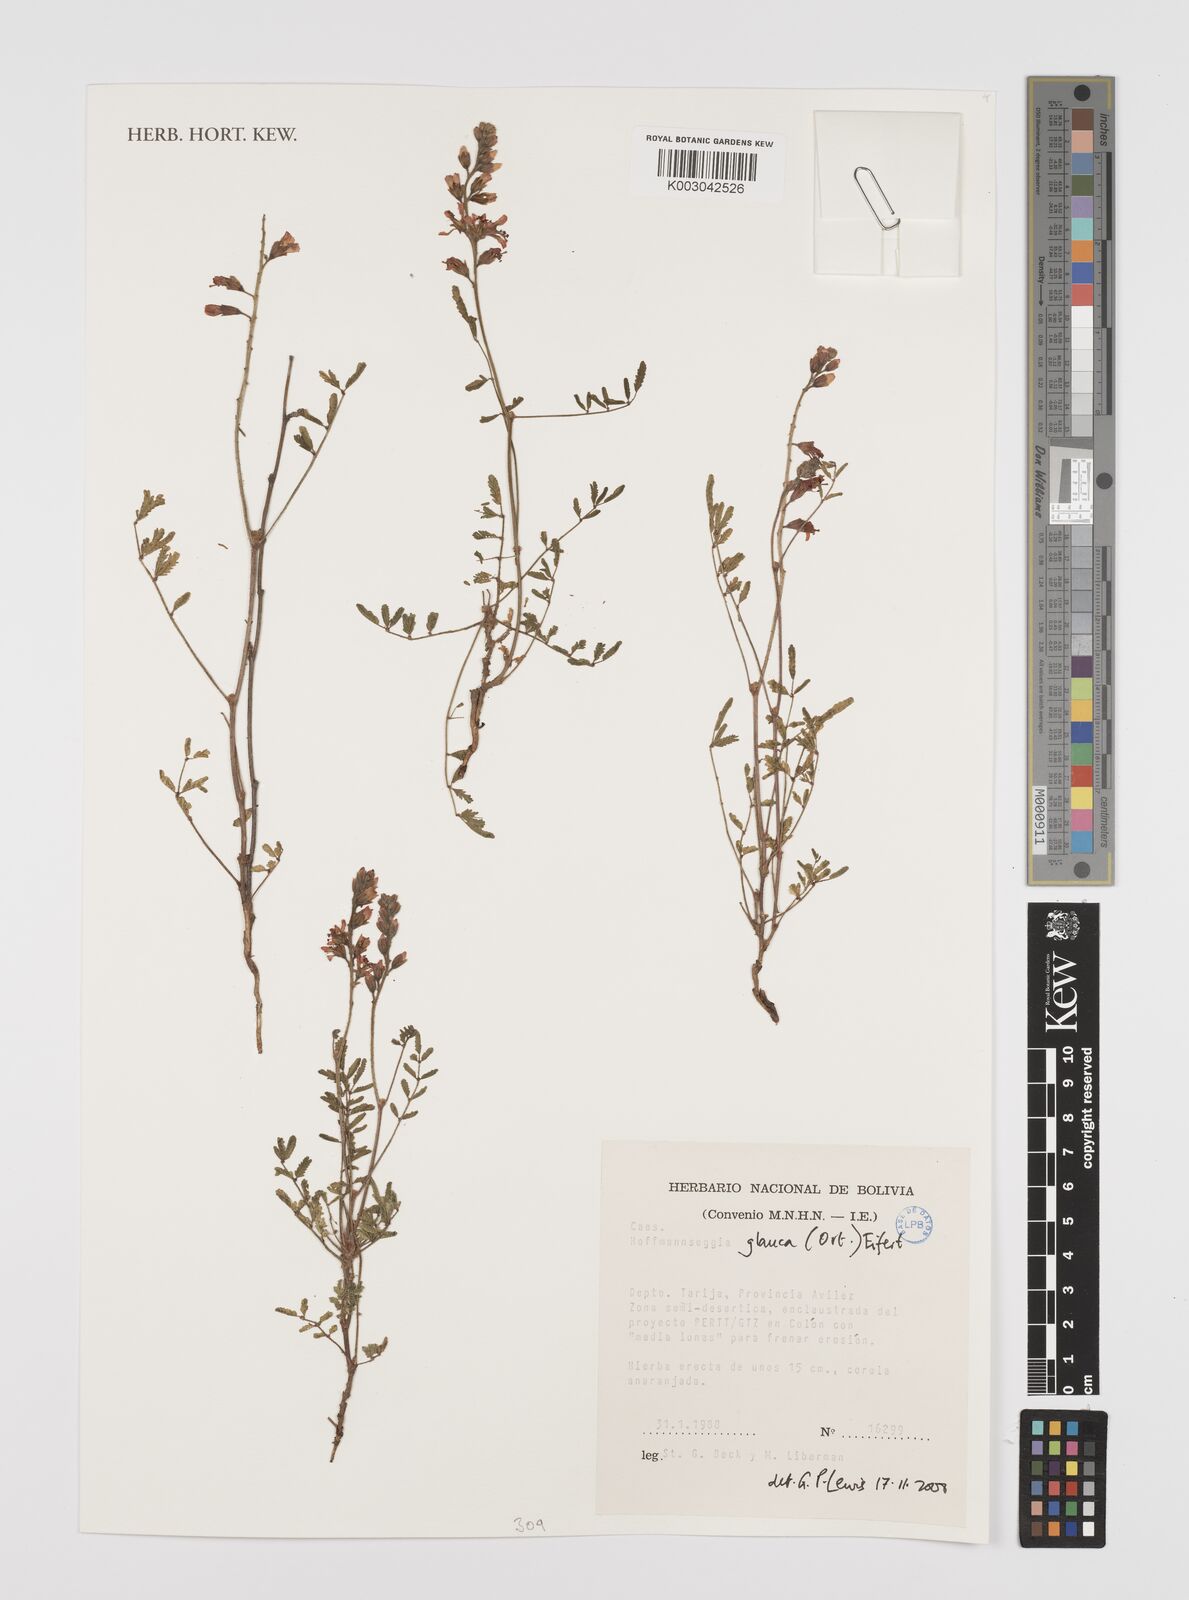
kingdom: Plantae
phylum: Tracheophyta
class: Magnoliopsida
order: Fabales
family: Fabaceae
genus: Hoffmannseggia
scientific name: Hoffmannseggia glauca
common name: Pignut
